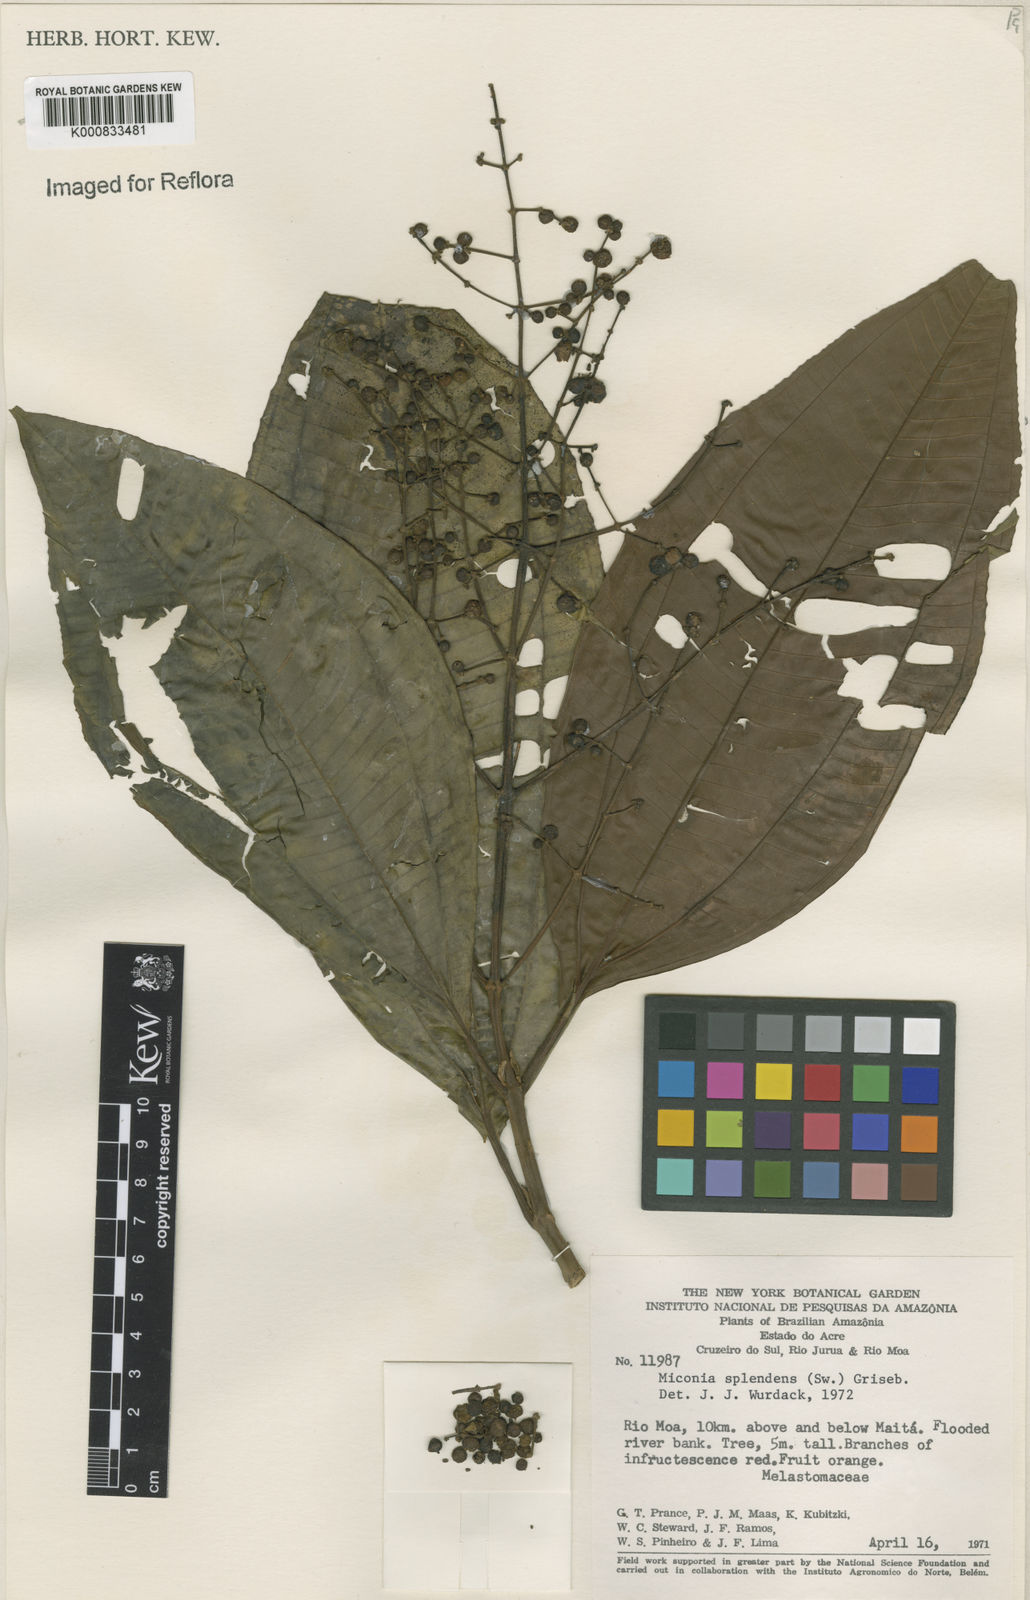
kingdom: Plantae
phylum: Tracheophyta
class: Magnoliopsida
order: Myrtales
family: Melastomataceae
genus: Miconia
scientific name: Miconia splendens
